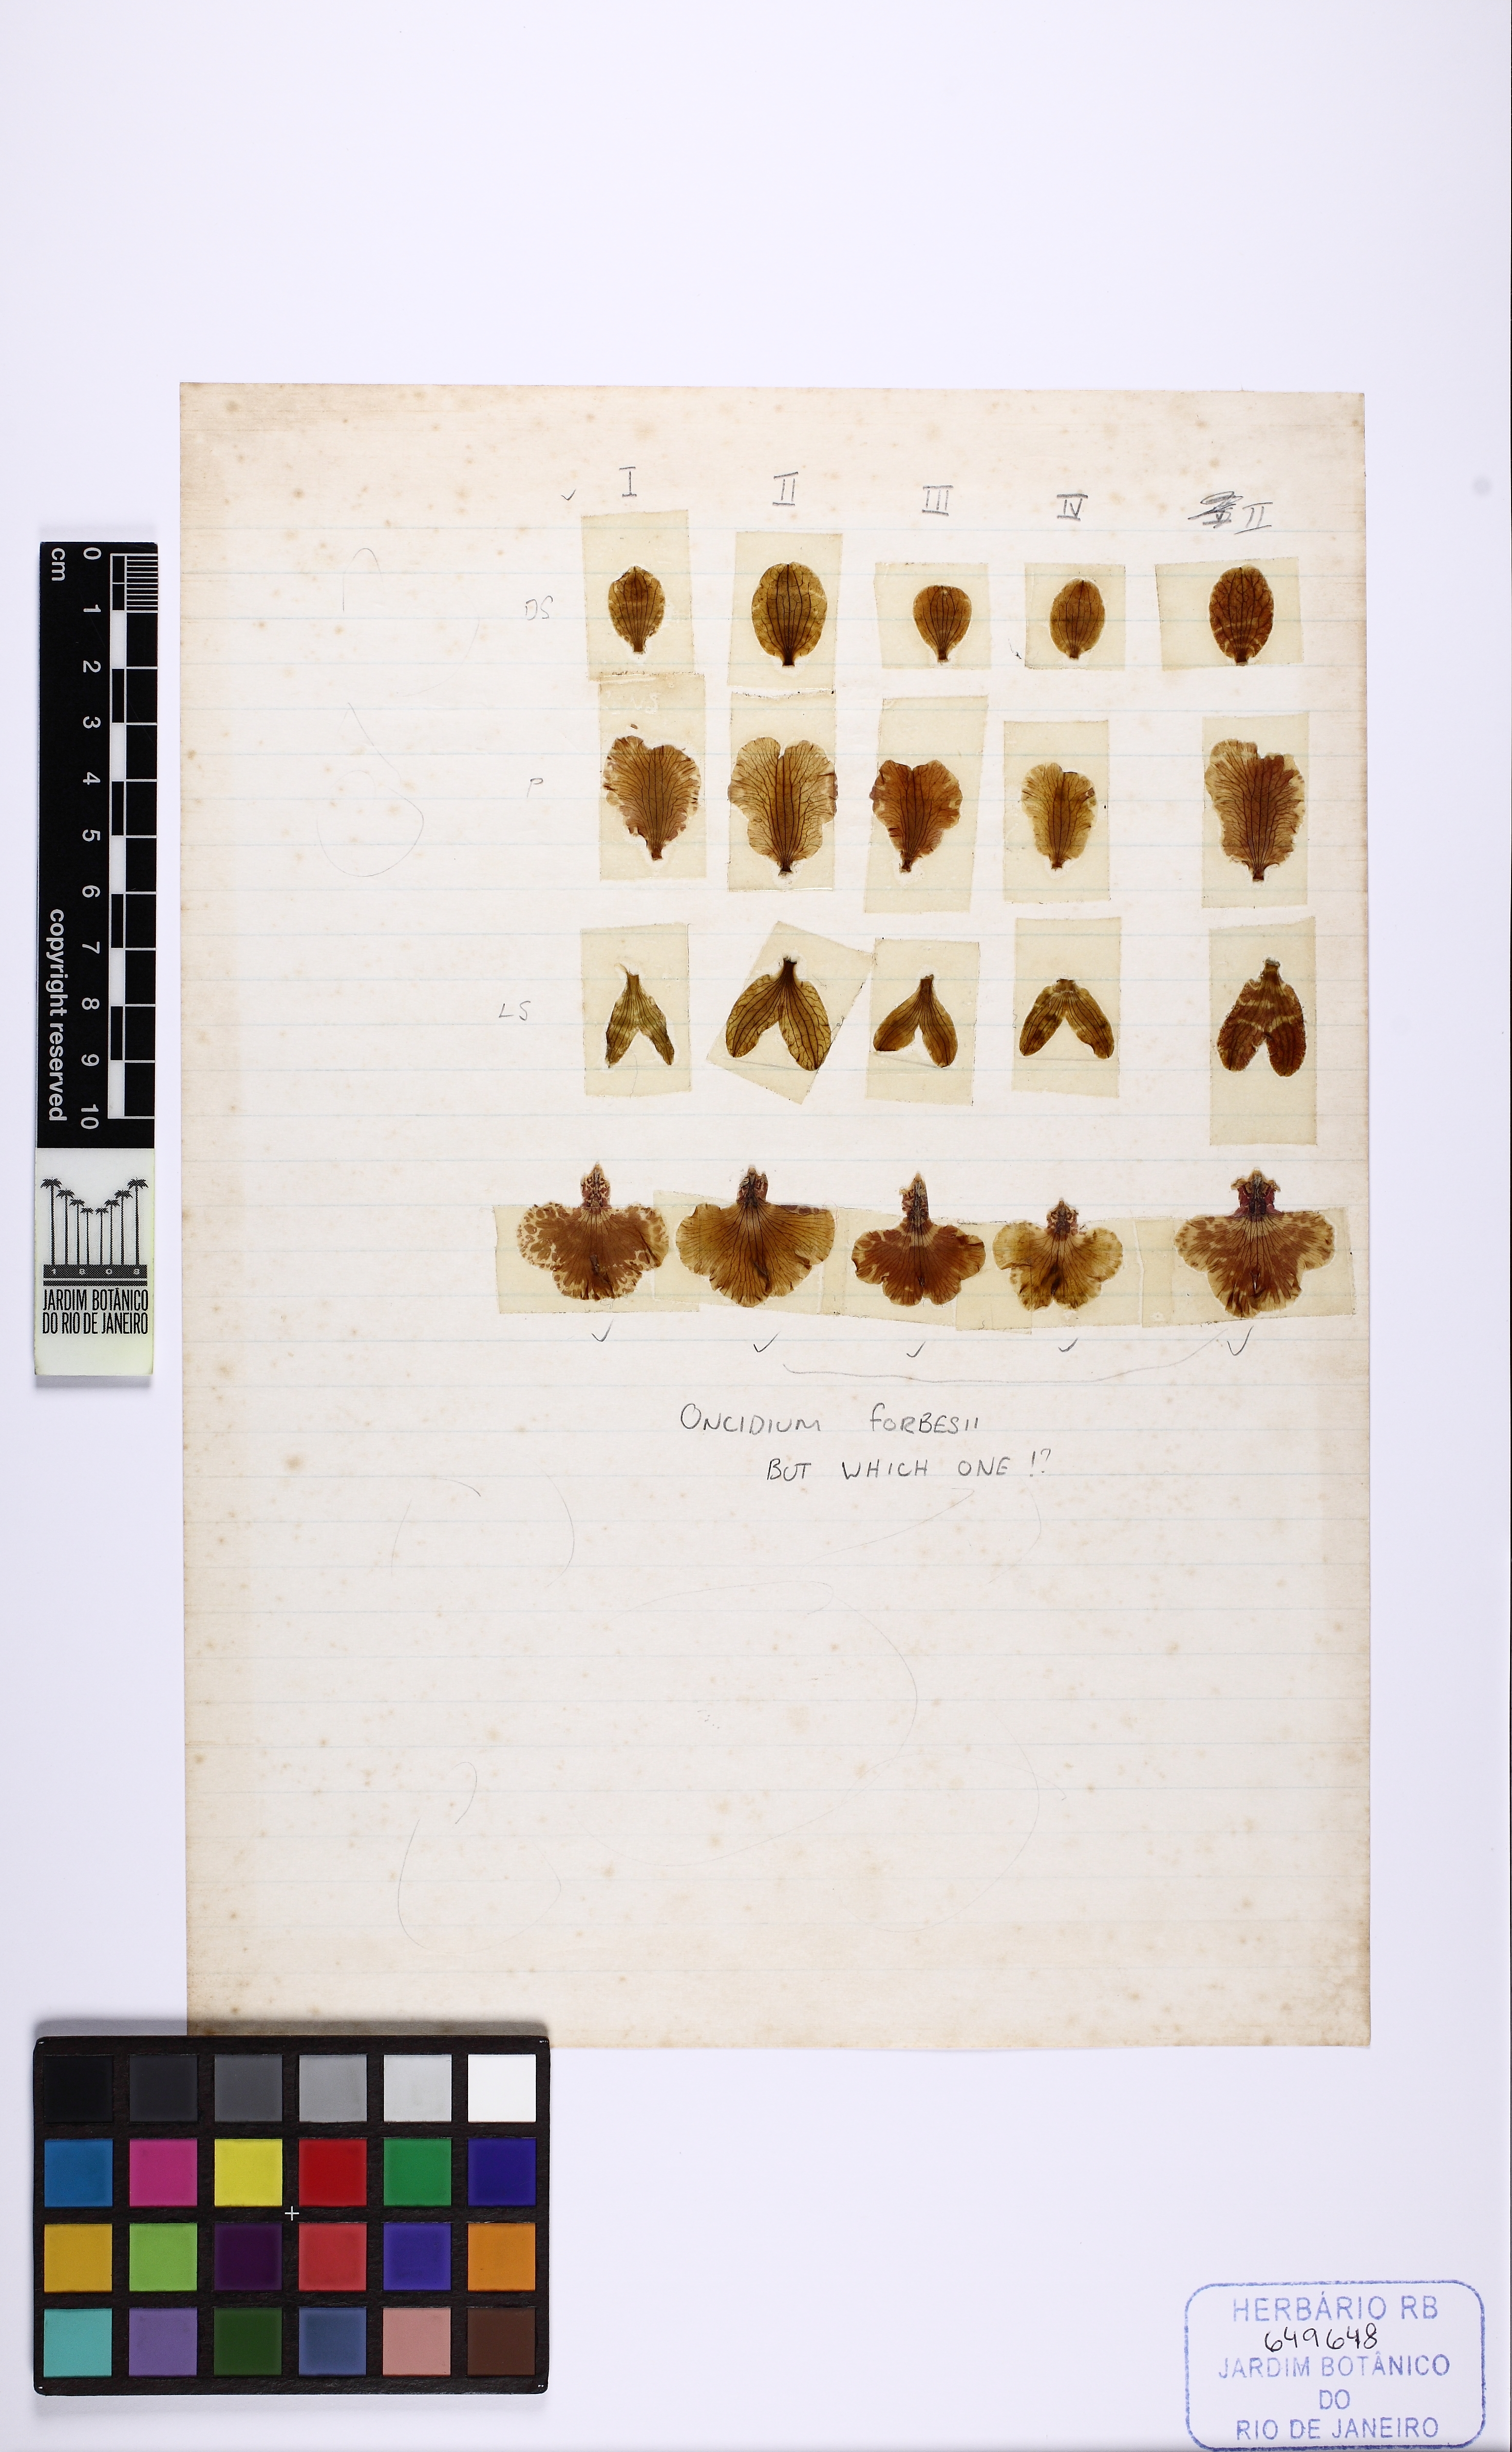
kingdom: Plantae
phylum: Tracheophyta
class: Liliopsida
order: Asparagales
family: Orchidaceae
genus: Gomesa
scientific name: Gomesa forbesii
